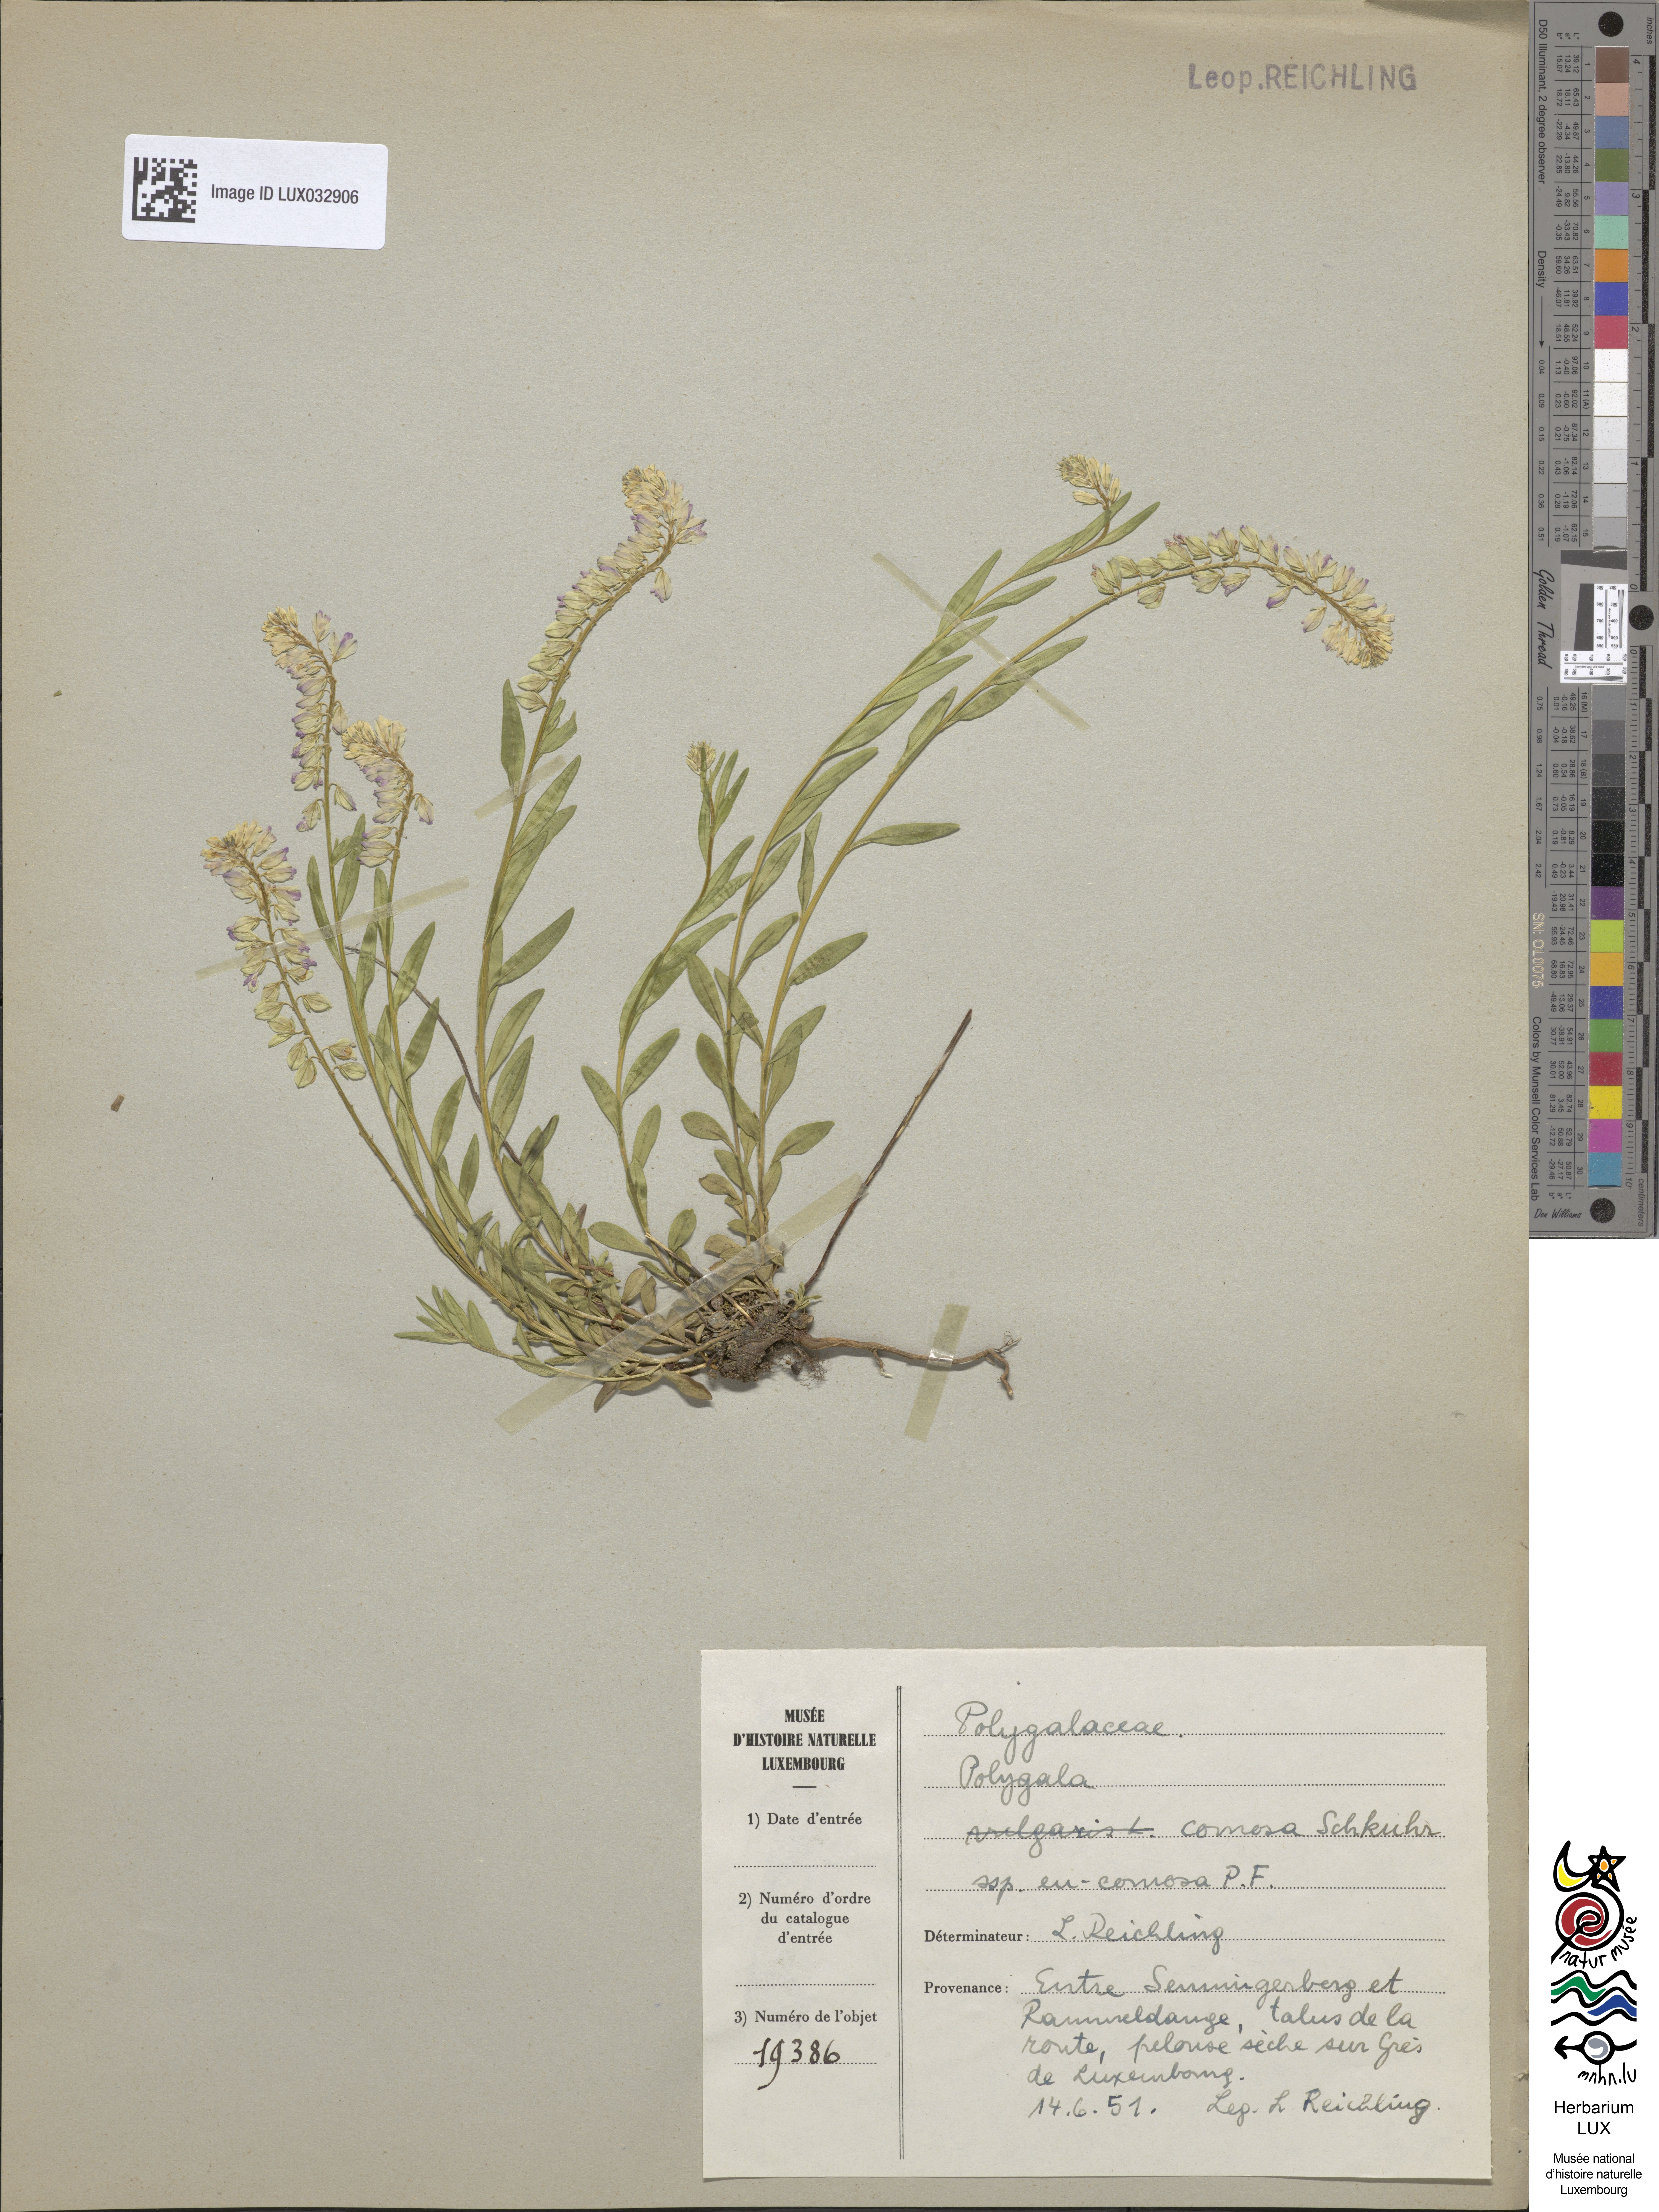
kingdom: Plantae
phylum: Tracheophyta
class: Magnoliopsida
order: Fabales
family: Polygalaceae
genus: Polygala
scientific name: Polygala comosa
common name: Tufted milkwort
